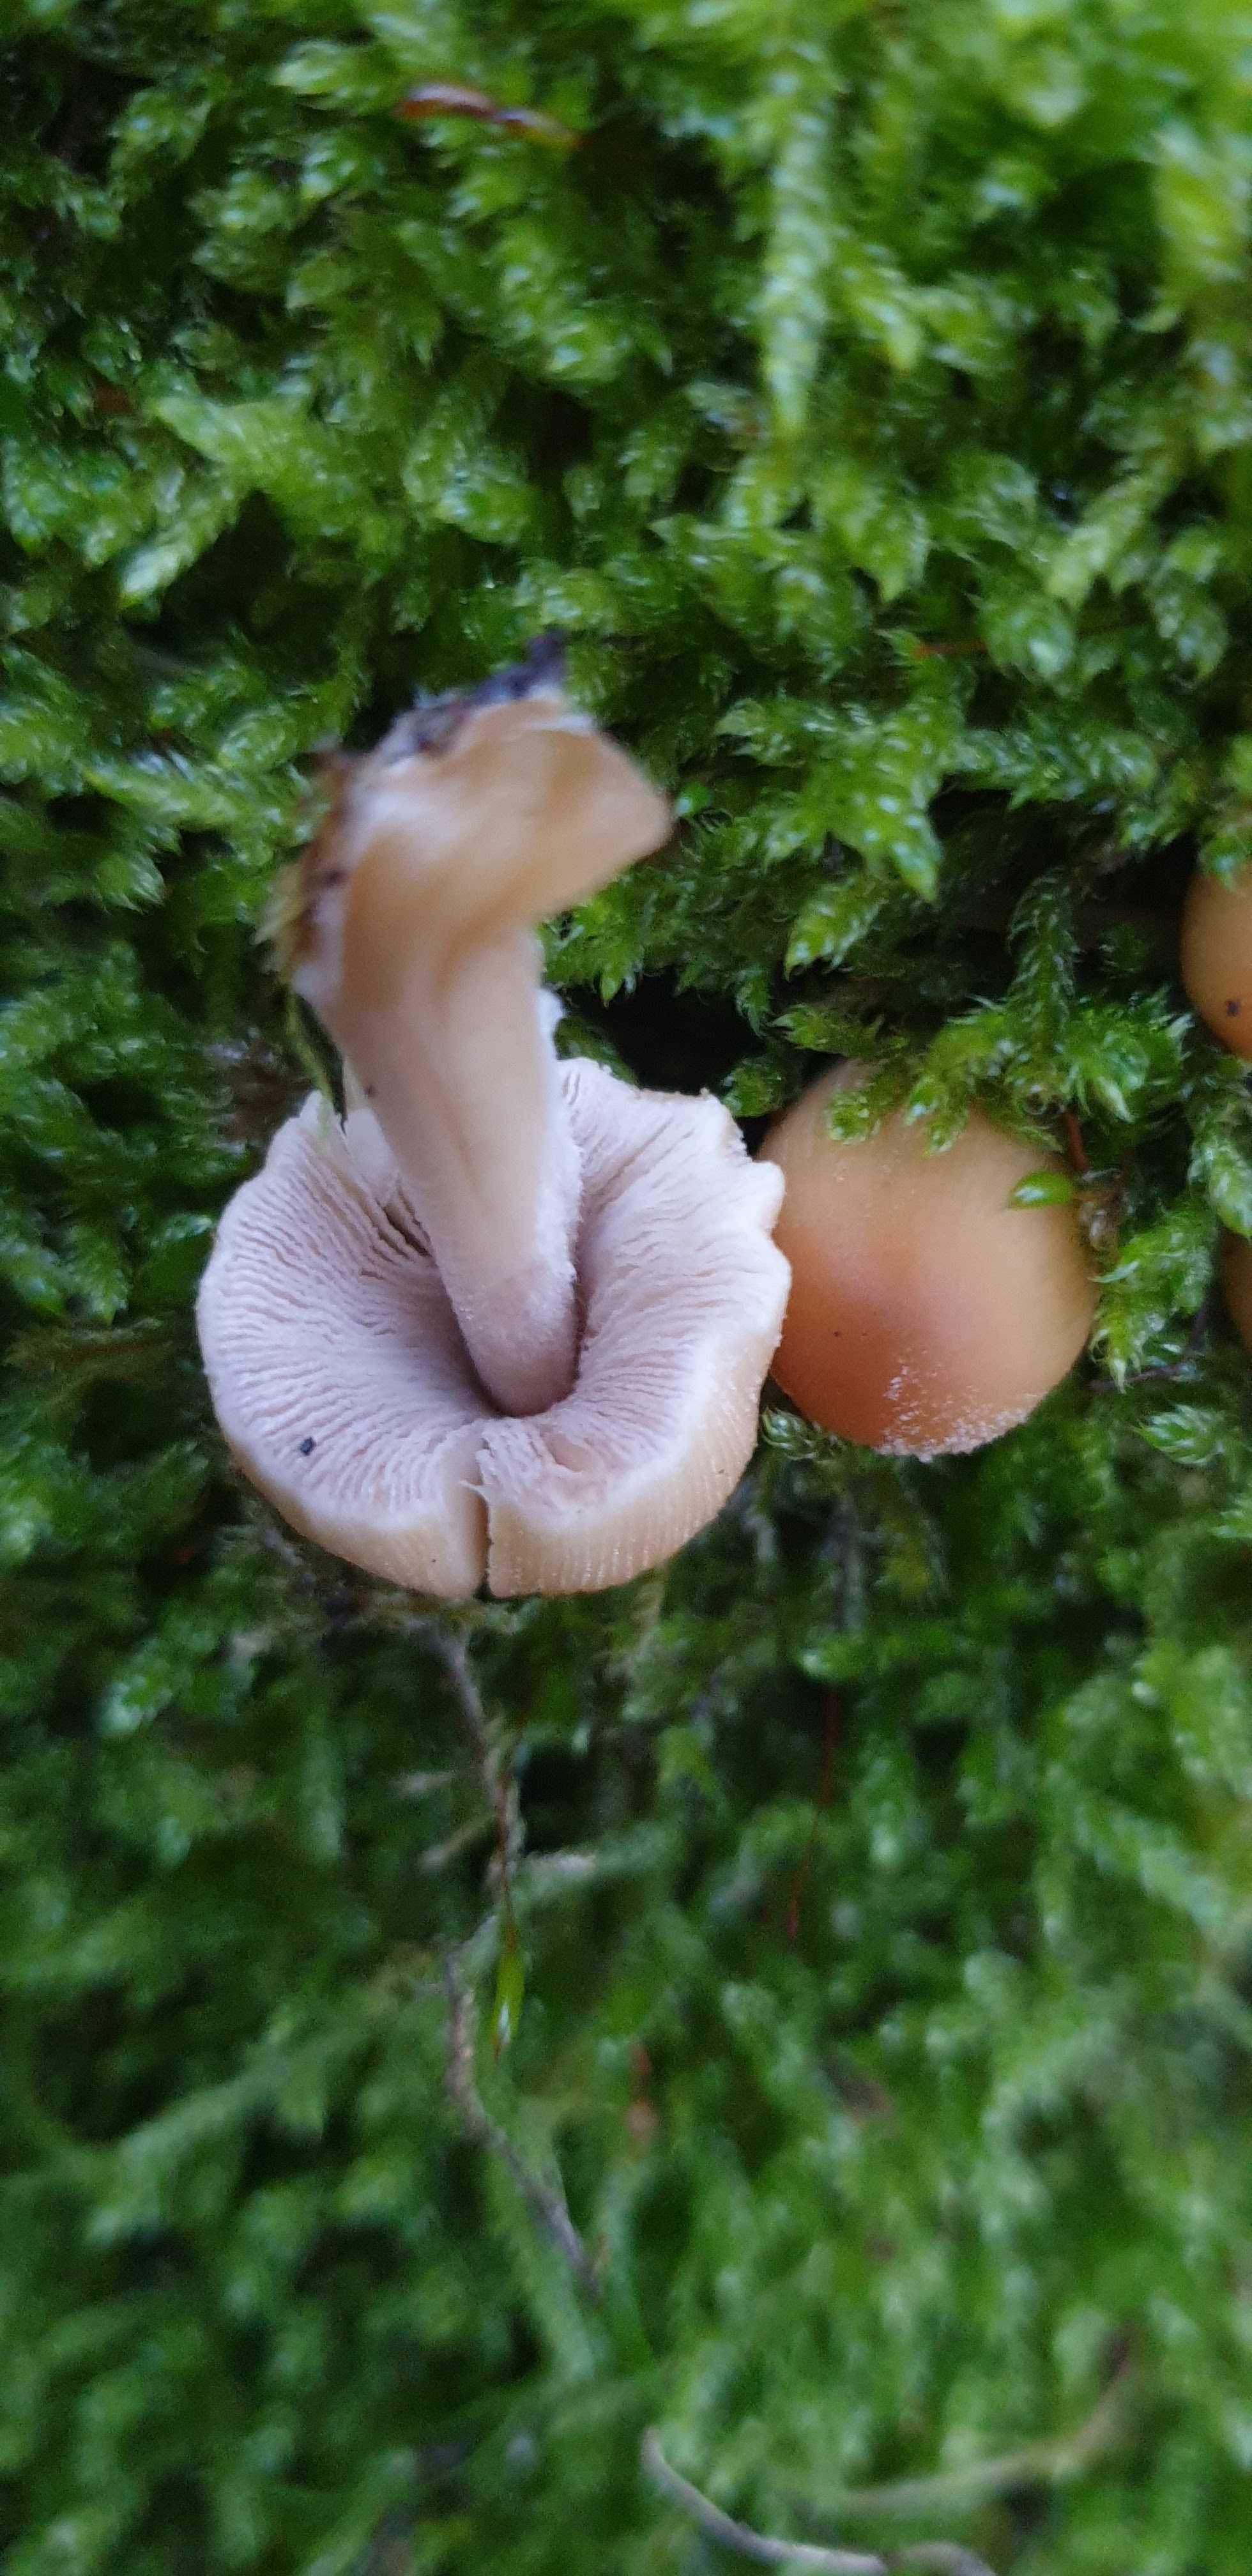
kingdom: Fungi
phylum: Basidiomycota
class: Agaricomycetes
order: Agaricales
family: Psathyrellaceae
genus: Coprinellus
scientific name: Coprinellus micaceus
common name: glimmer-blækhat
